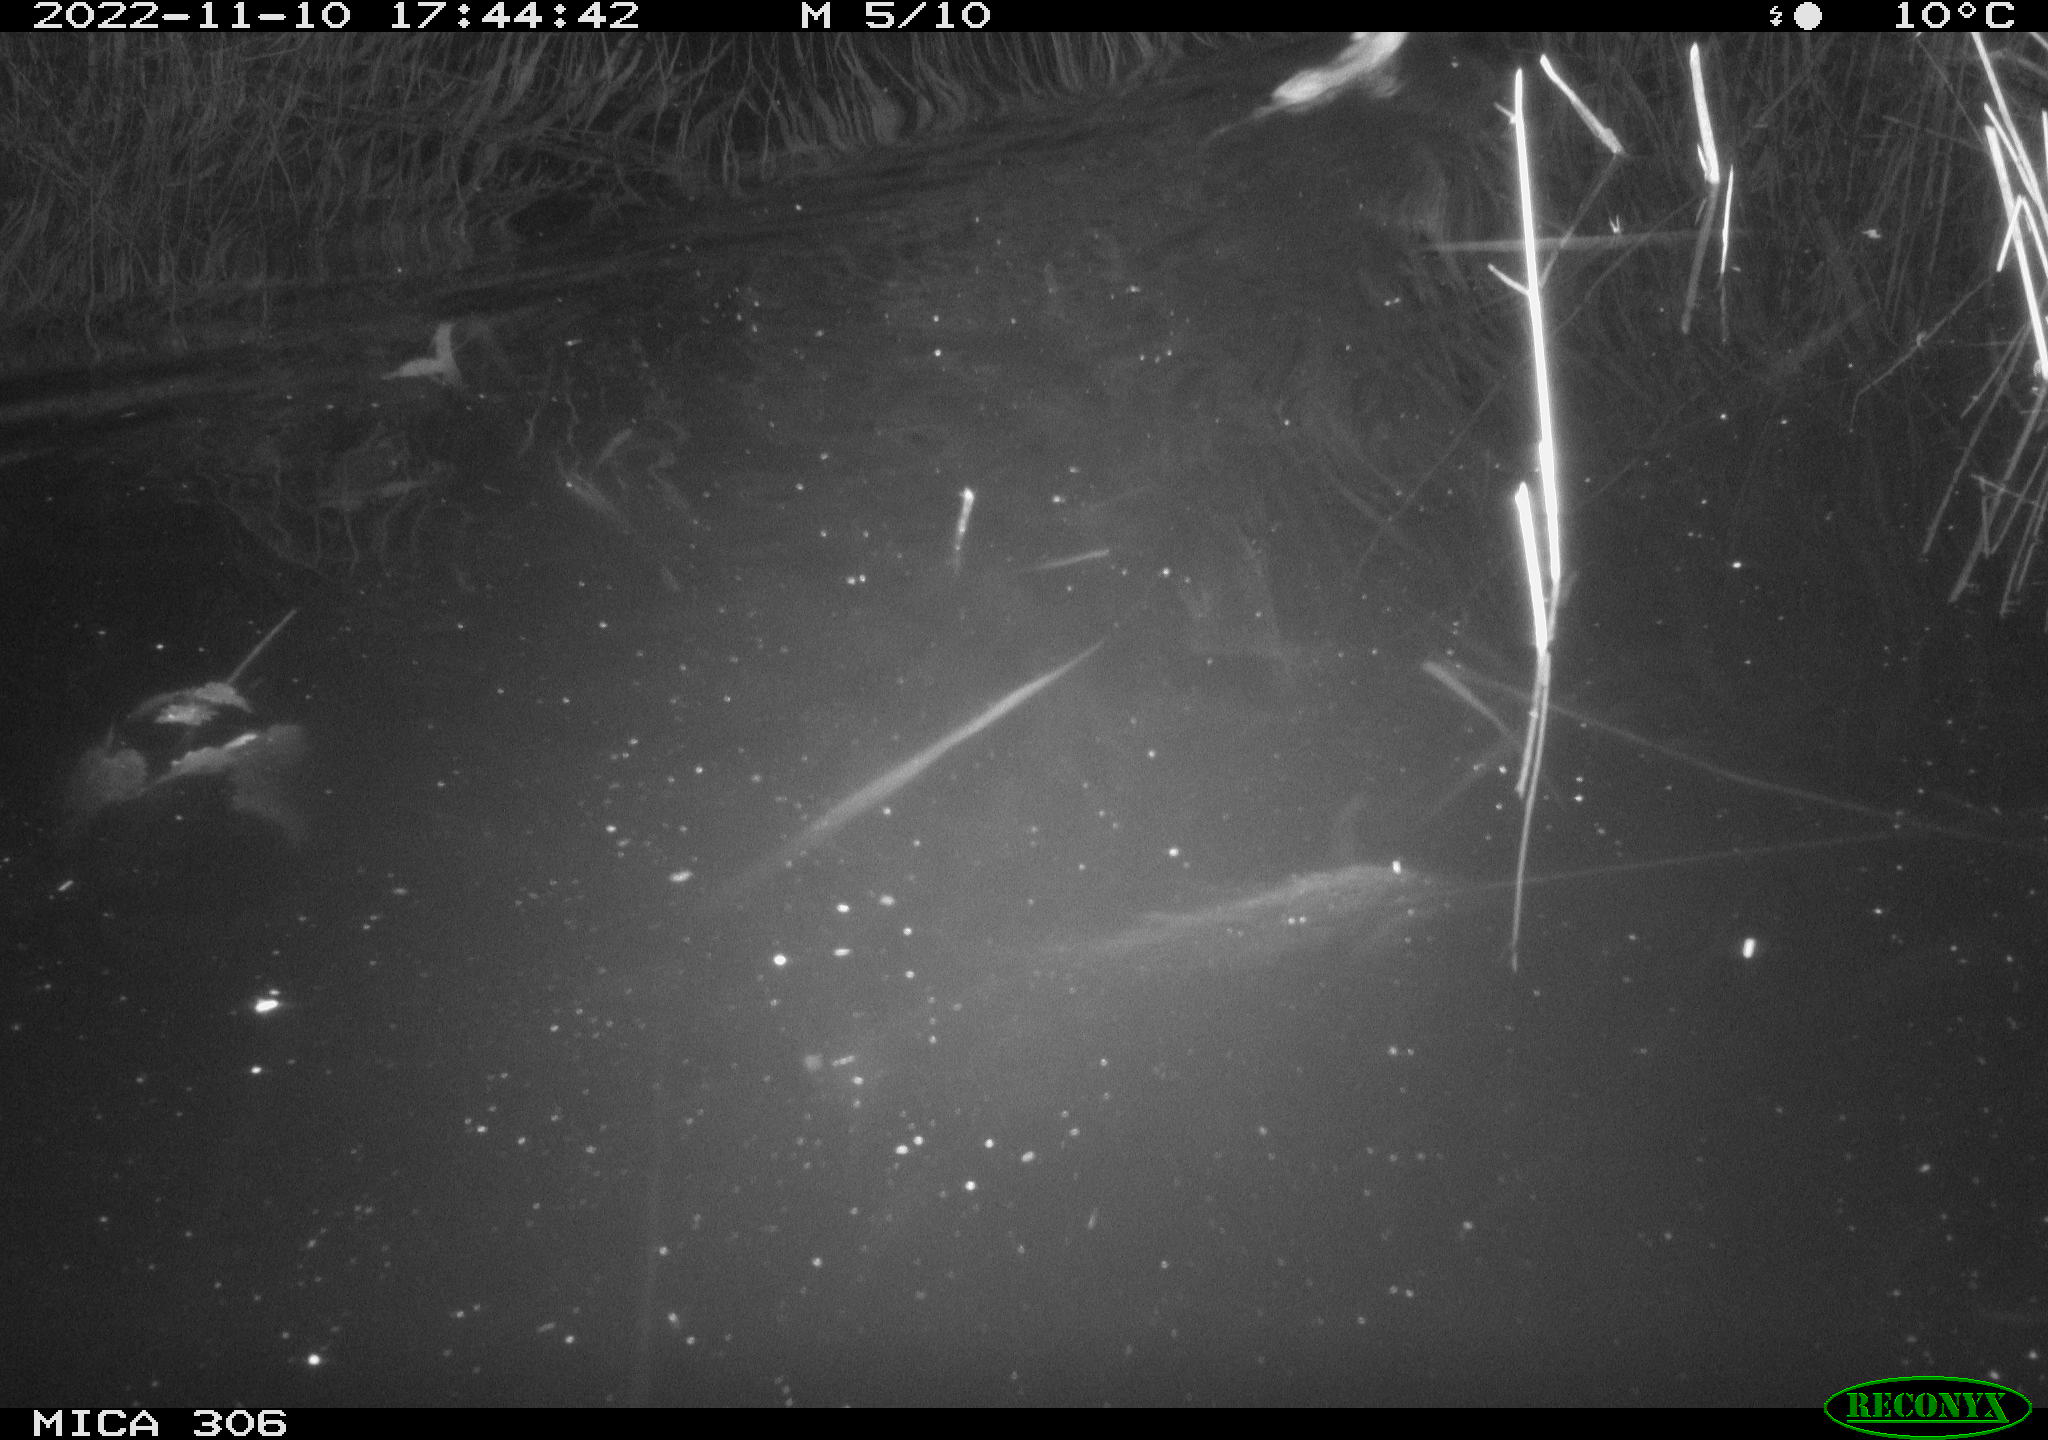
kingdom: Animalia
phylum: Chordata
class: Mammalia
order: Rodentia
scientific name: Rodentia
